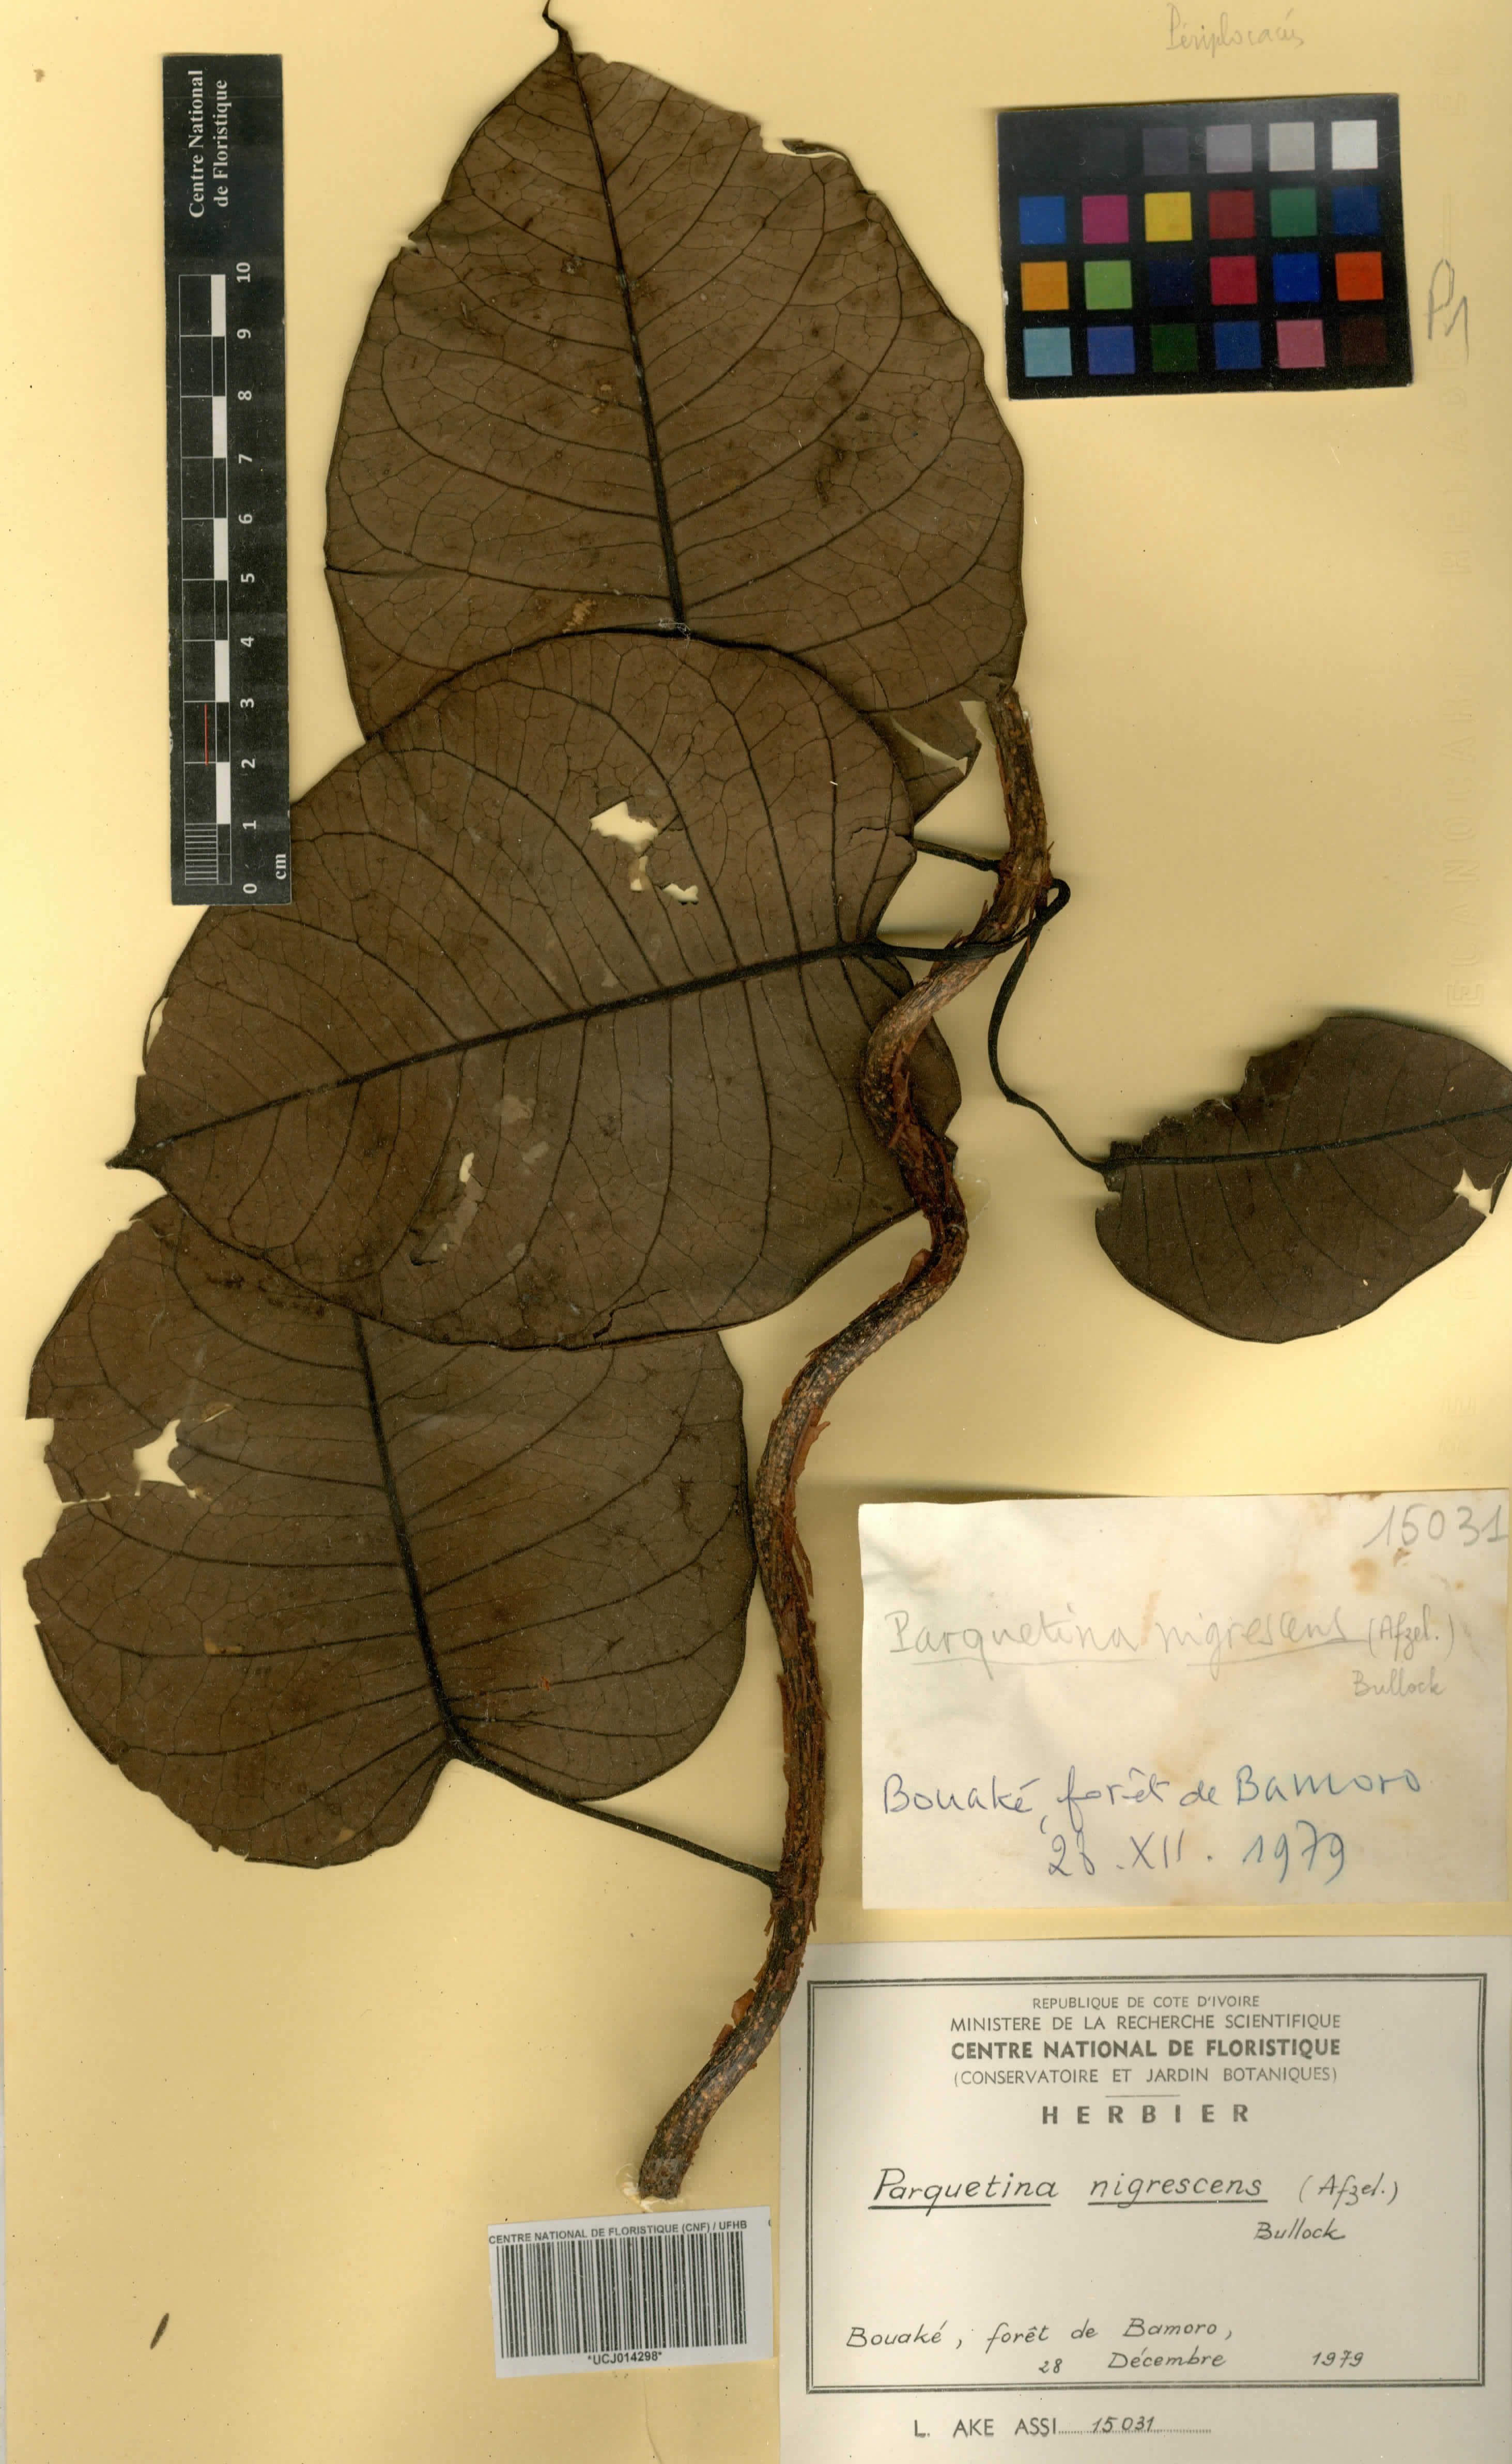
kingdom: Plantae
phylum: Tracheophyta
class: Magnoliopsida
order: Gentianales
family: Apocynaceae
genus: Cryptolepis
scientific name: Cryptolepis nigrescens
